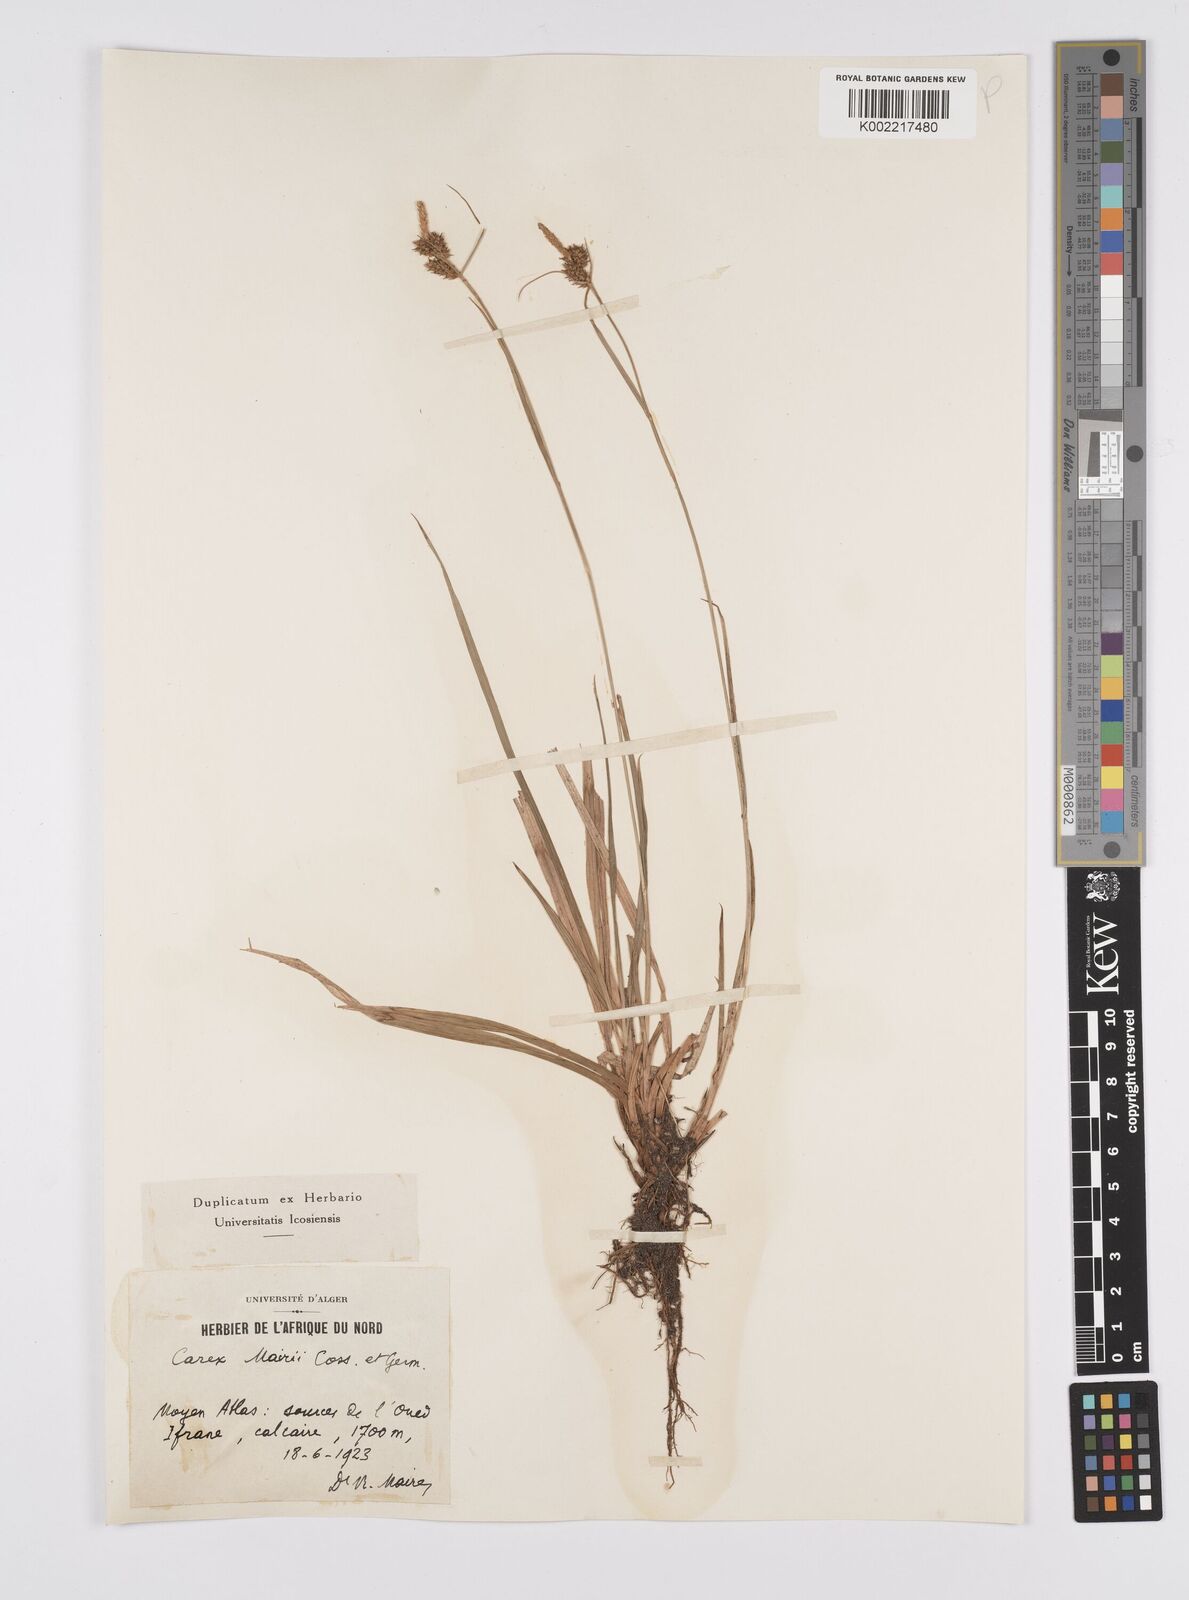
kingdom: Plantae
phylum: Tracheophyta
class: Liliopsida
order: Poales
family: Cyperaceae
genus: Carex
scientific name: Carex mairei
